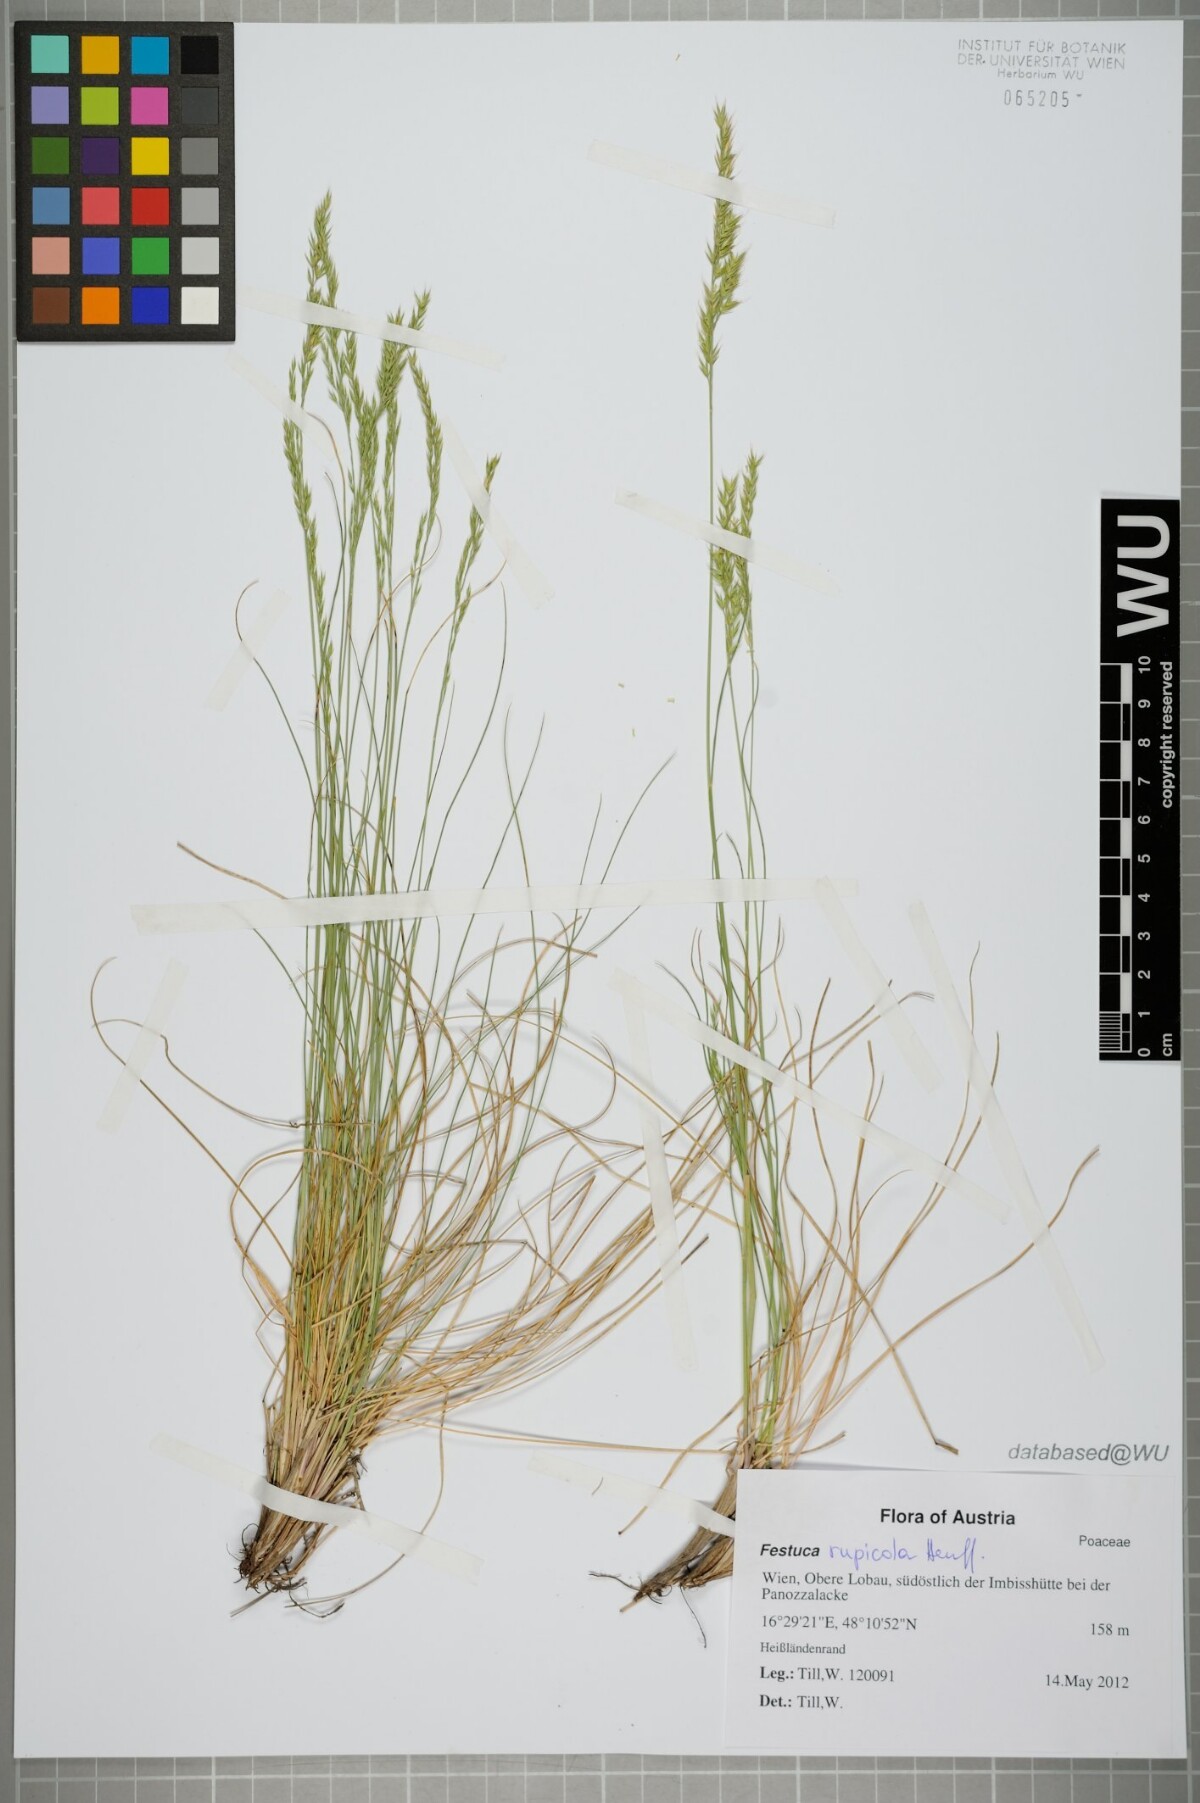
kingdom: Plantae
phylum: Tracheophyta
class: Liliopsida
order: Poales
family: Poaceae
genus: Festuca
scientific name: Festuca rupicola
